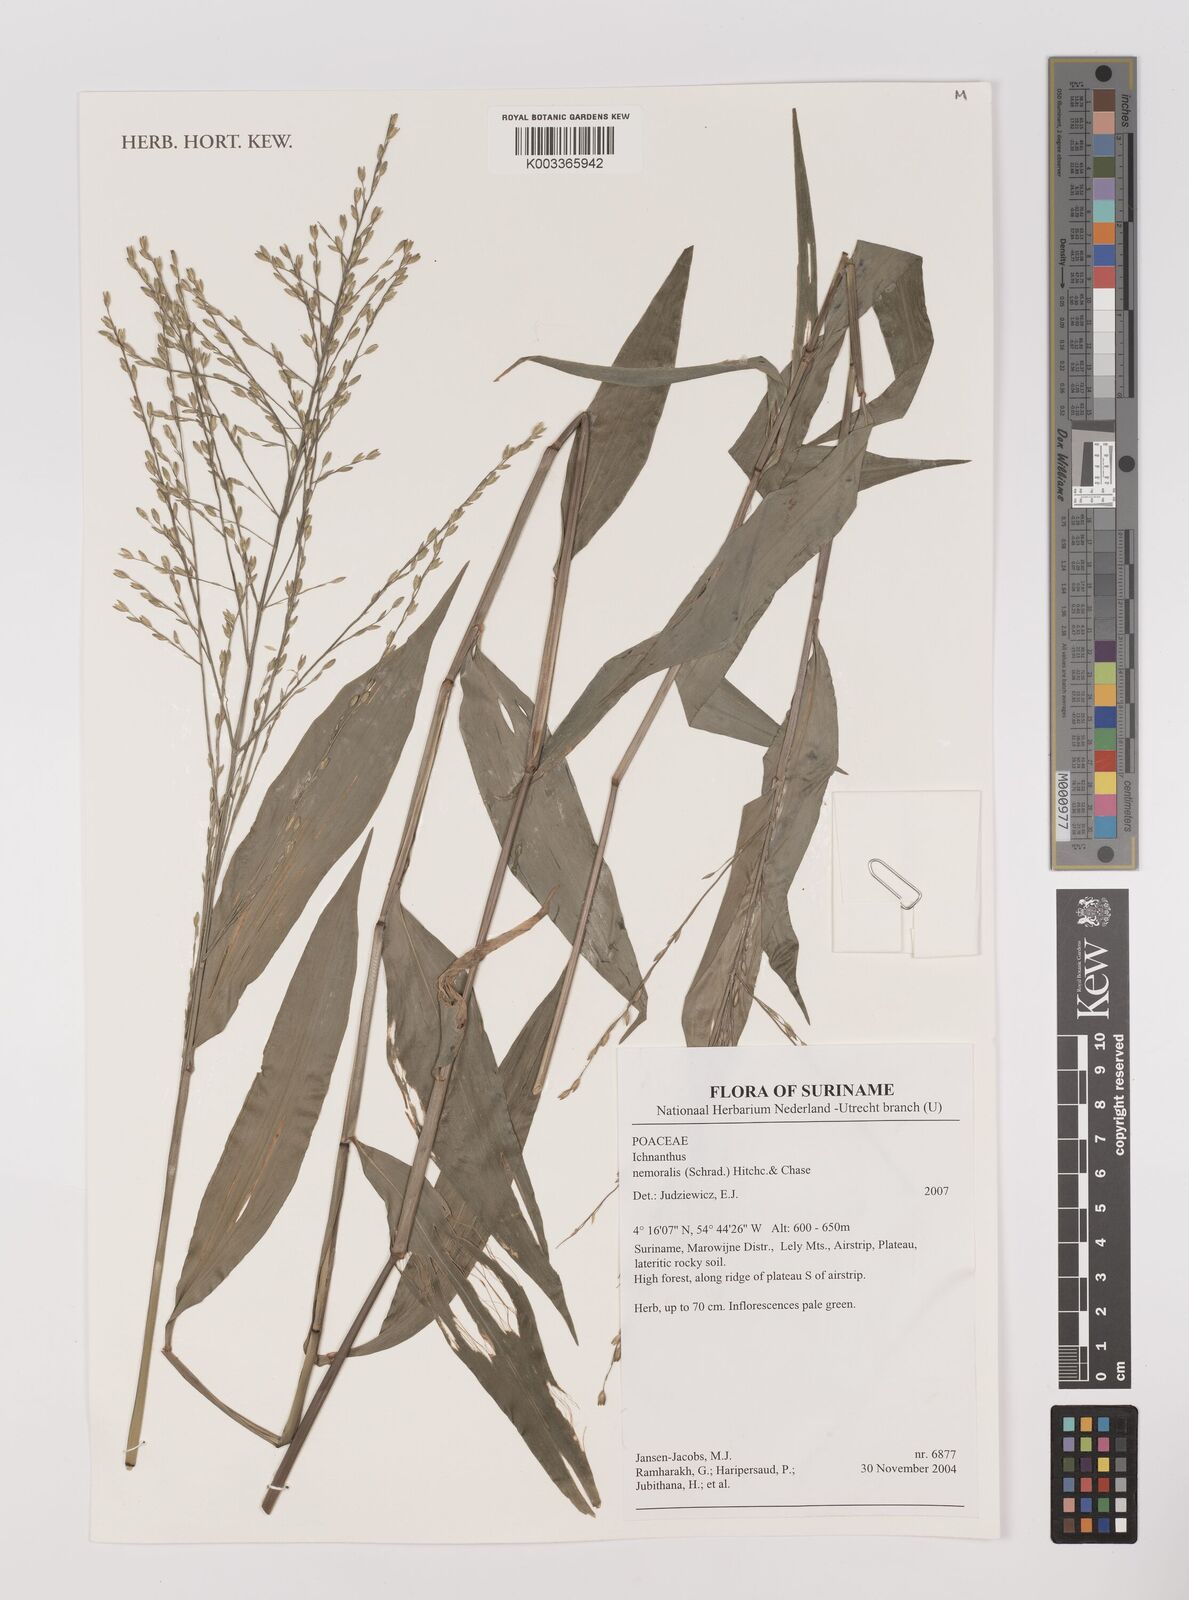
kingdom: Plantae
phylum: Tracheophyta
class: Liliopsida
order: Poales
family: Poaceae
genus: Ichnanthus
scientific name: Ichnanthus nemoralis
